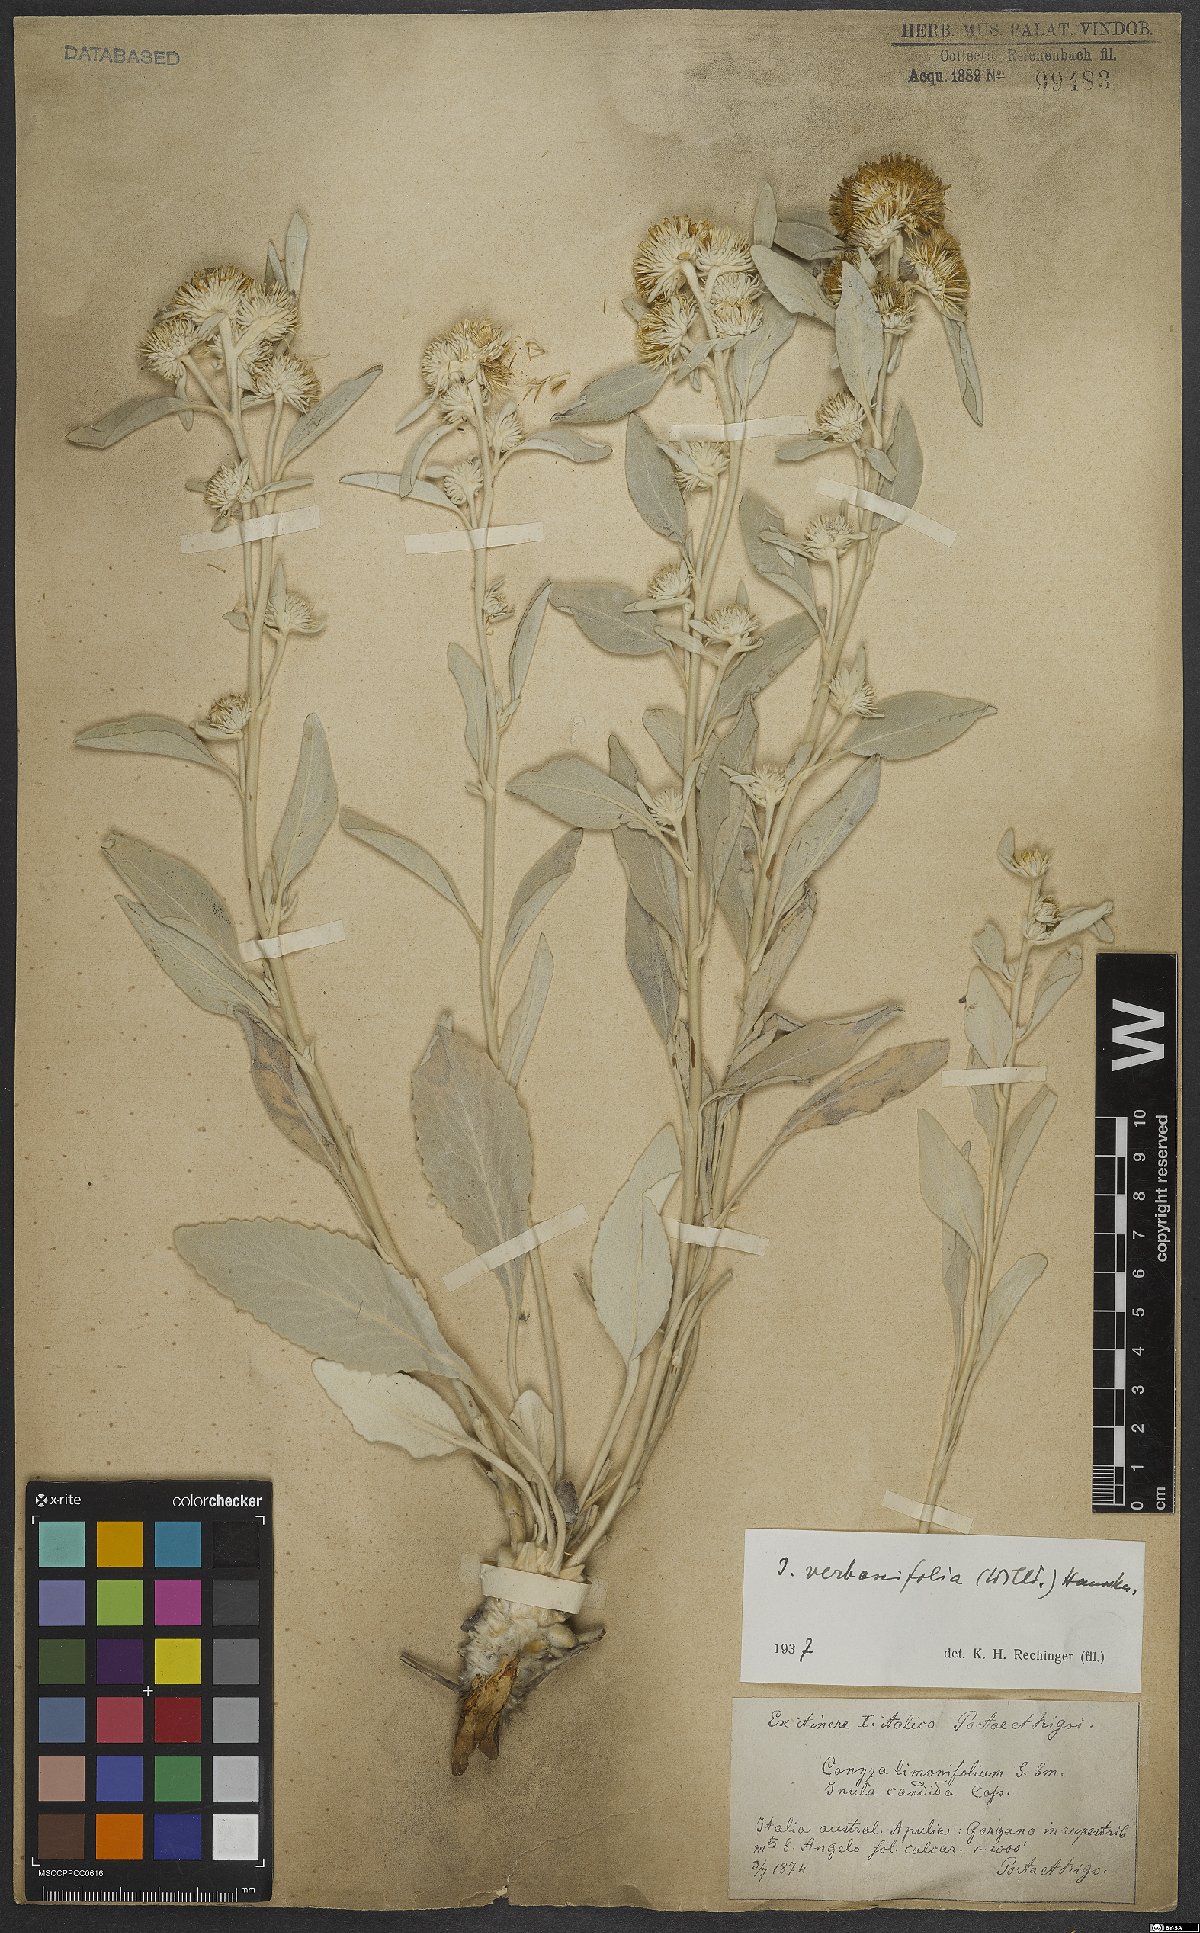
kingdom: Plantae
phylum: Tracheophyta
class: Magnoliopsida
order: Asterales
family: Asteraceae
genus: Pentanema
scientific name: Pentanema verbascifolium
